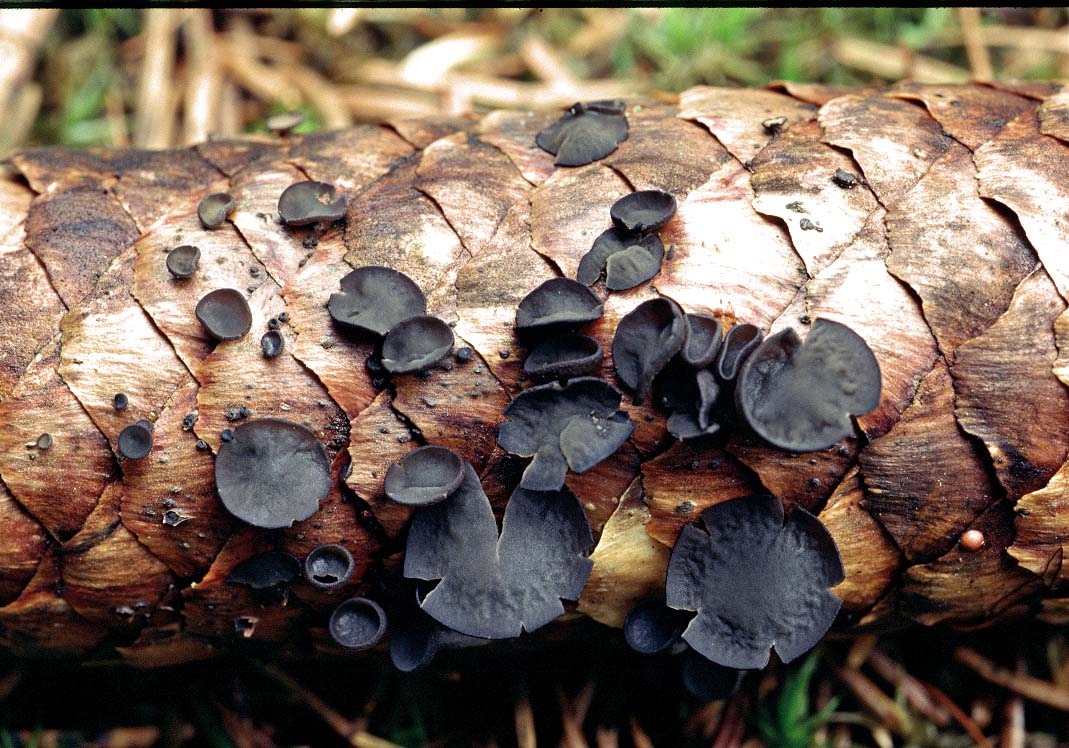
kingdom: Fungi
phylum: Ascomycota
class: Leotiomycetes
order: Helotiales
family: Rutstroemiaceae
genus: Rutstroemia
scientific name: Rutstroemia bulgarioides
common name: kogleskive
